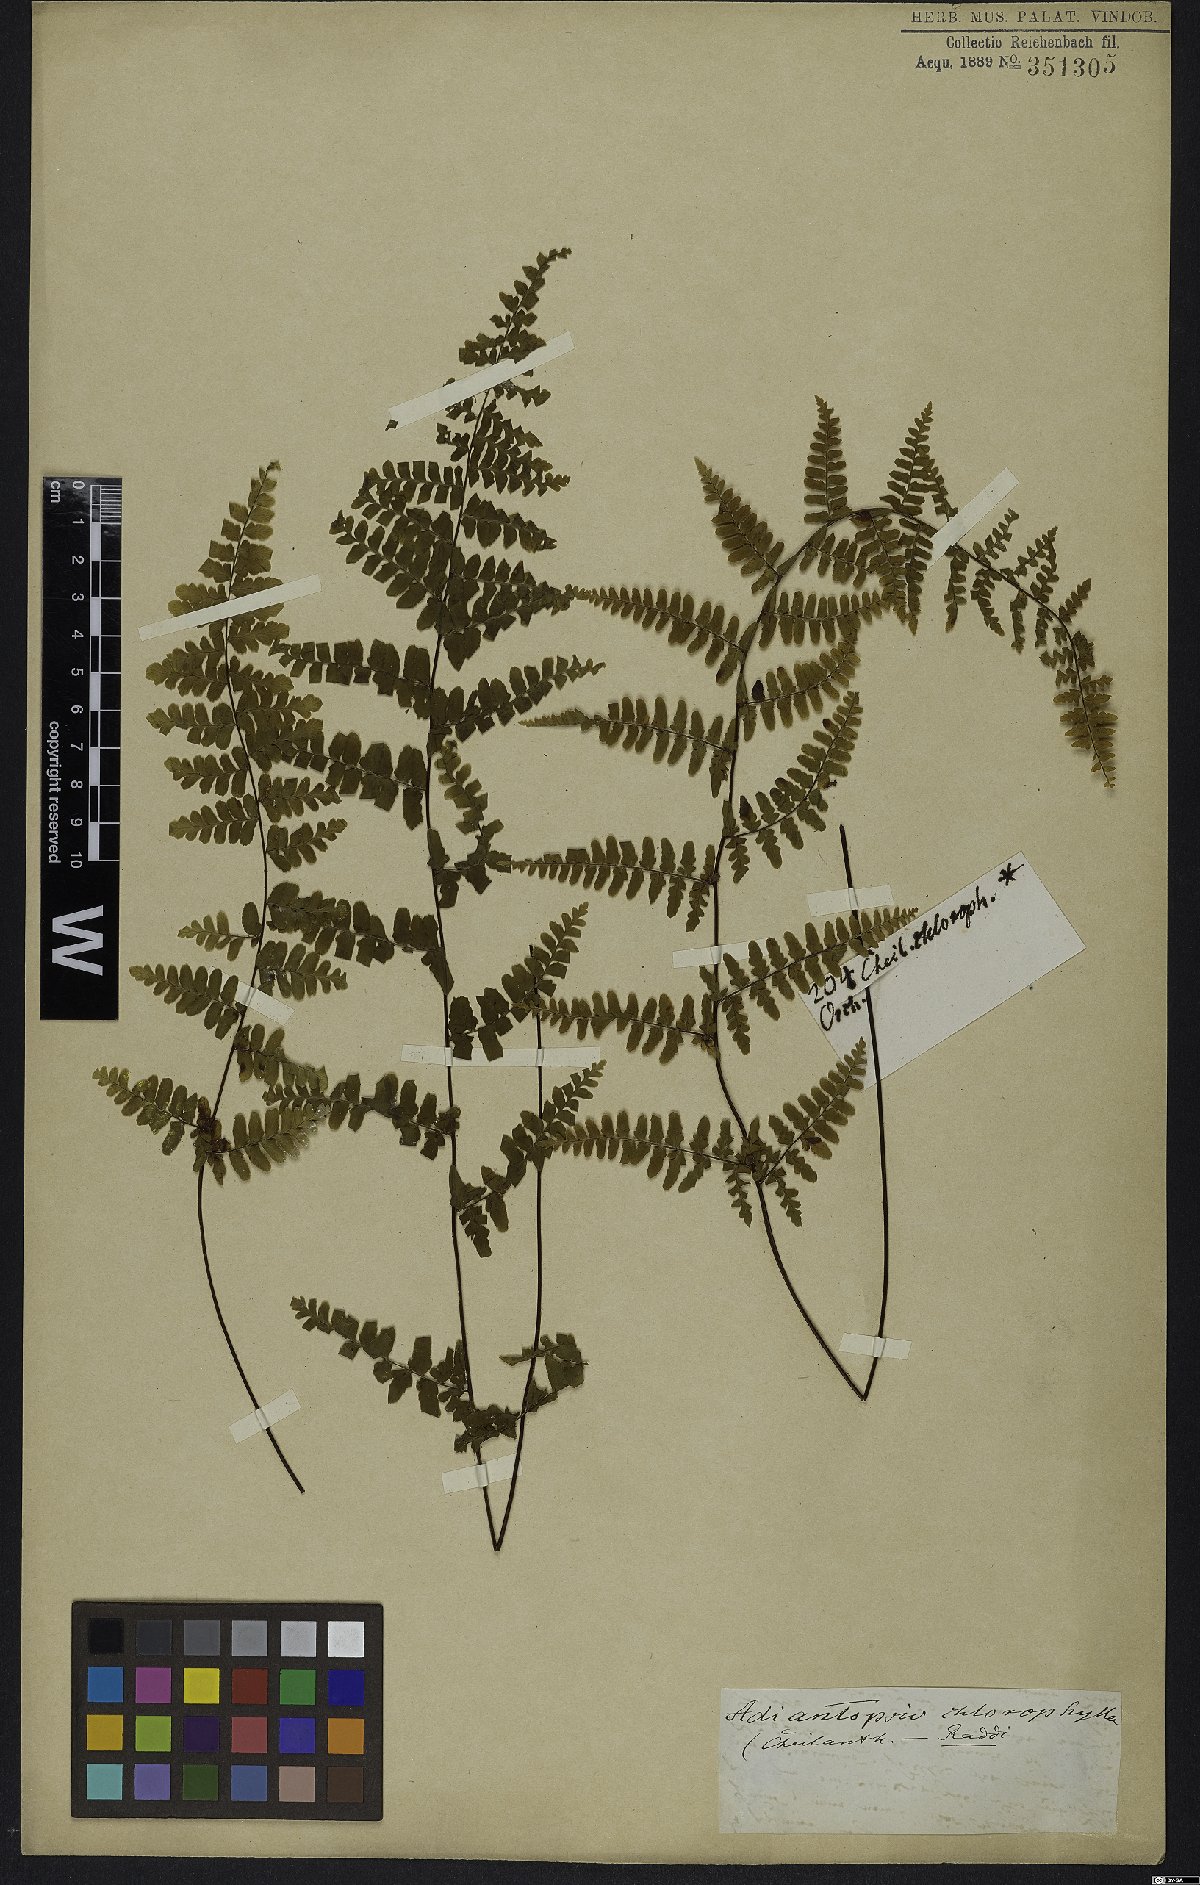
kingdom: Plantae
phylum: Tracheophyta
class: Polypodiopsida
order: Polypodiales
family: Pteridaceae
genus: Adiantopsis
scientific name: Adiantopsis chlorophylla
